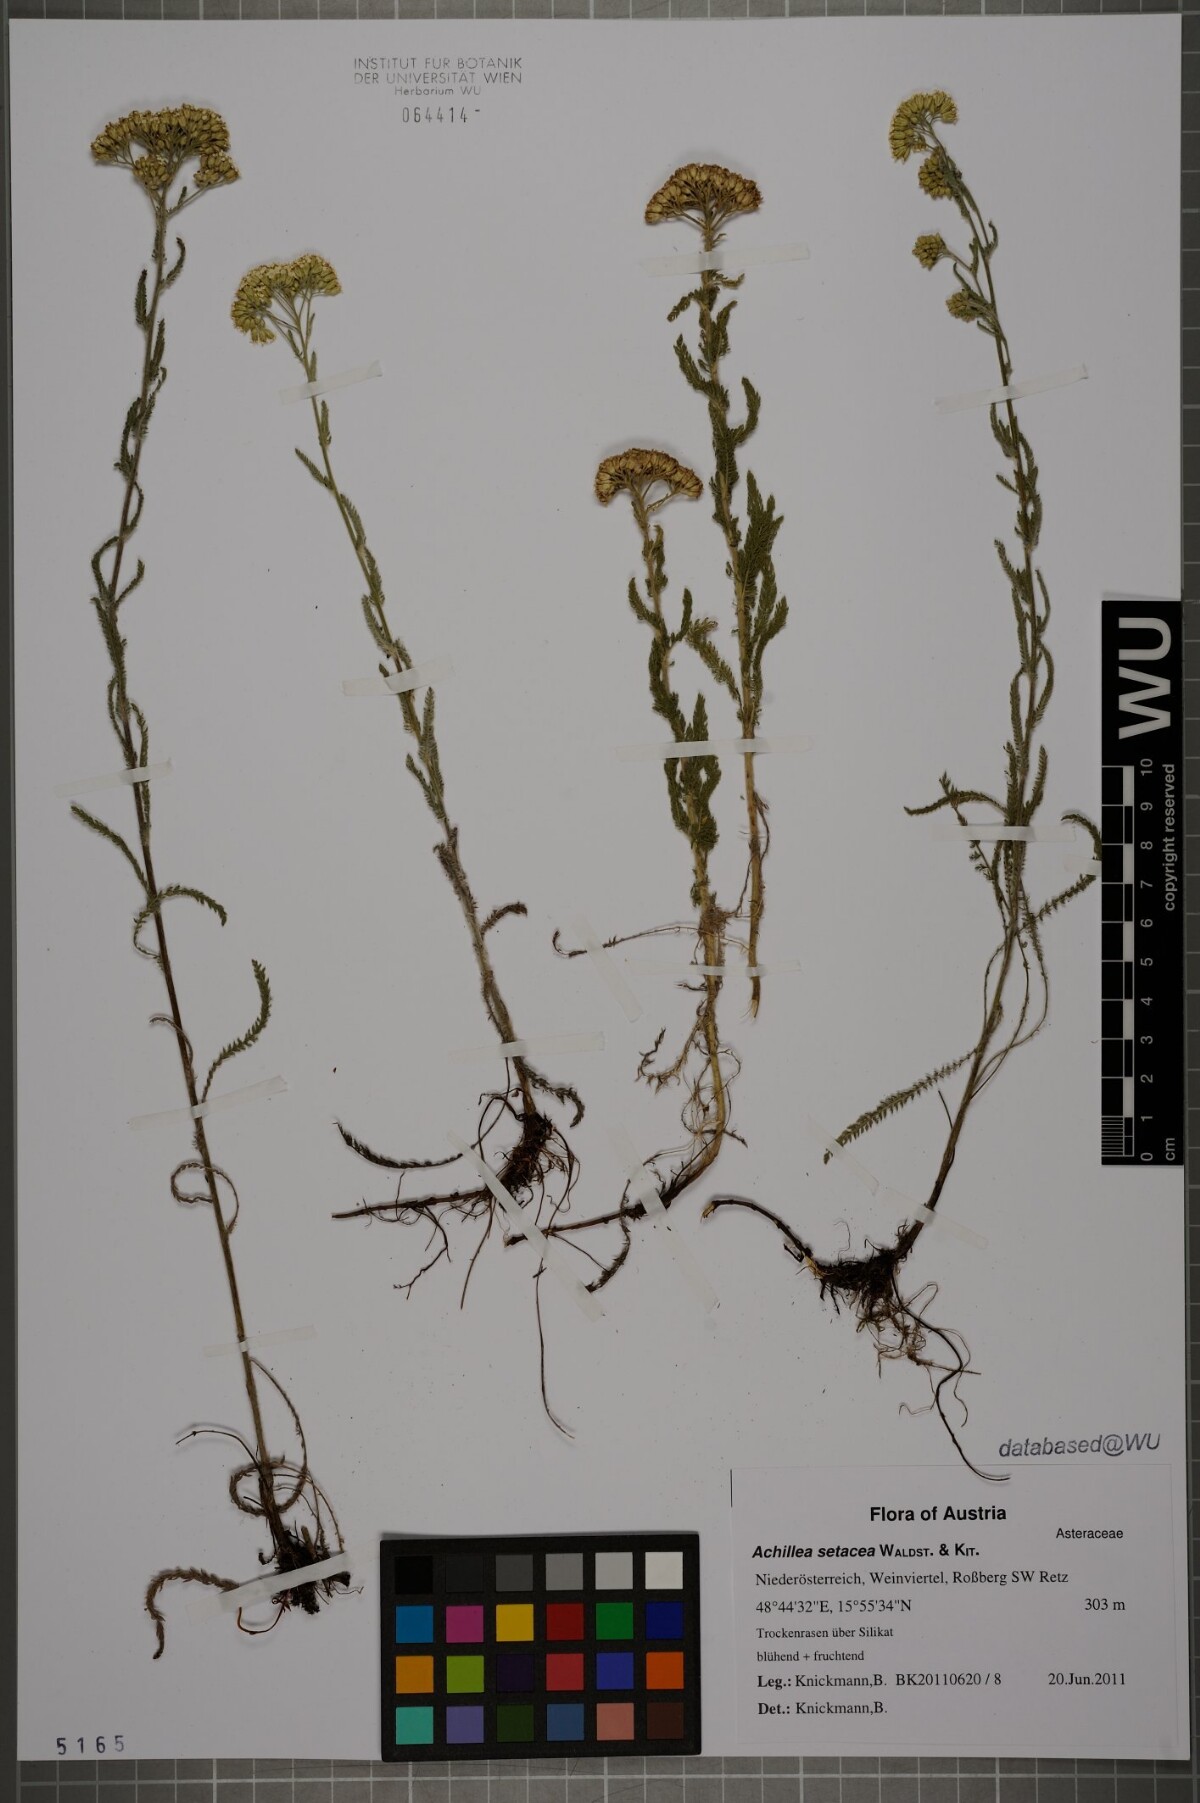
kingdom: Plantae
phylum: Tracheophyta
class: Magnoliopsida
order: Asterales
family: Asteraceae
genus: Achillea
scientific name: Achillea setacea
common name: Bristly yarrow
